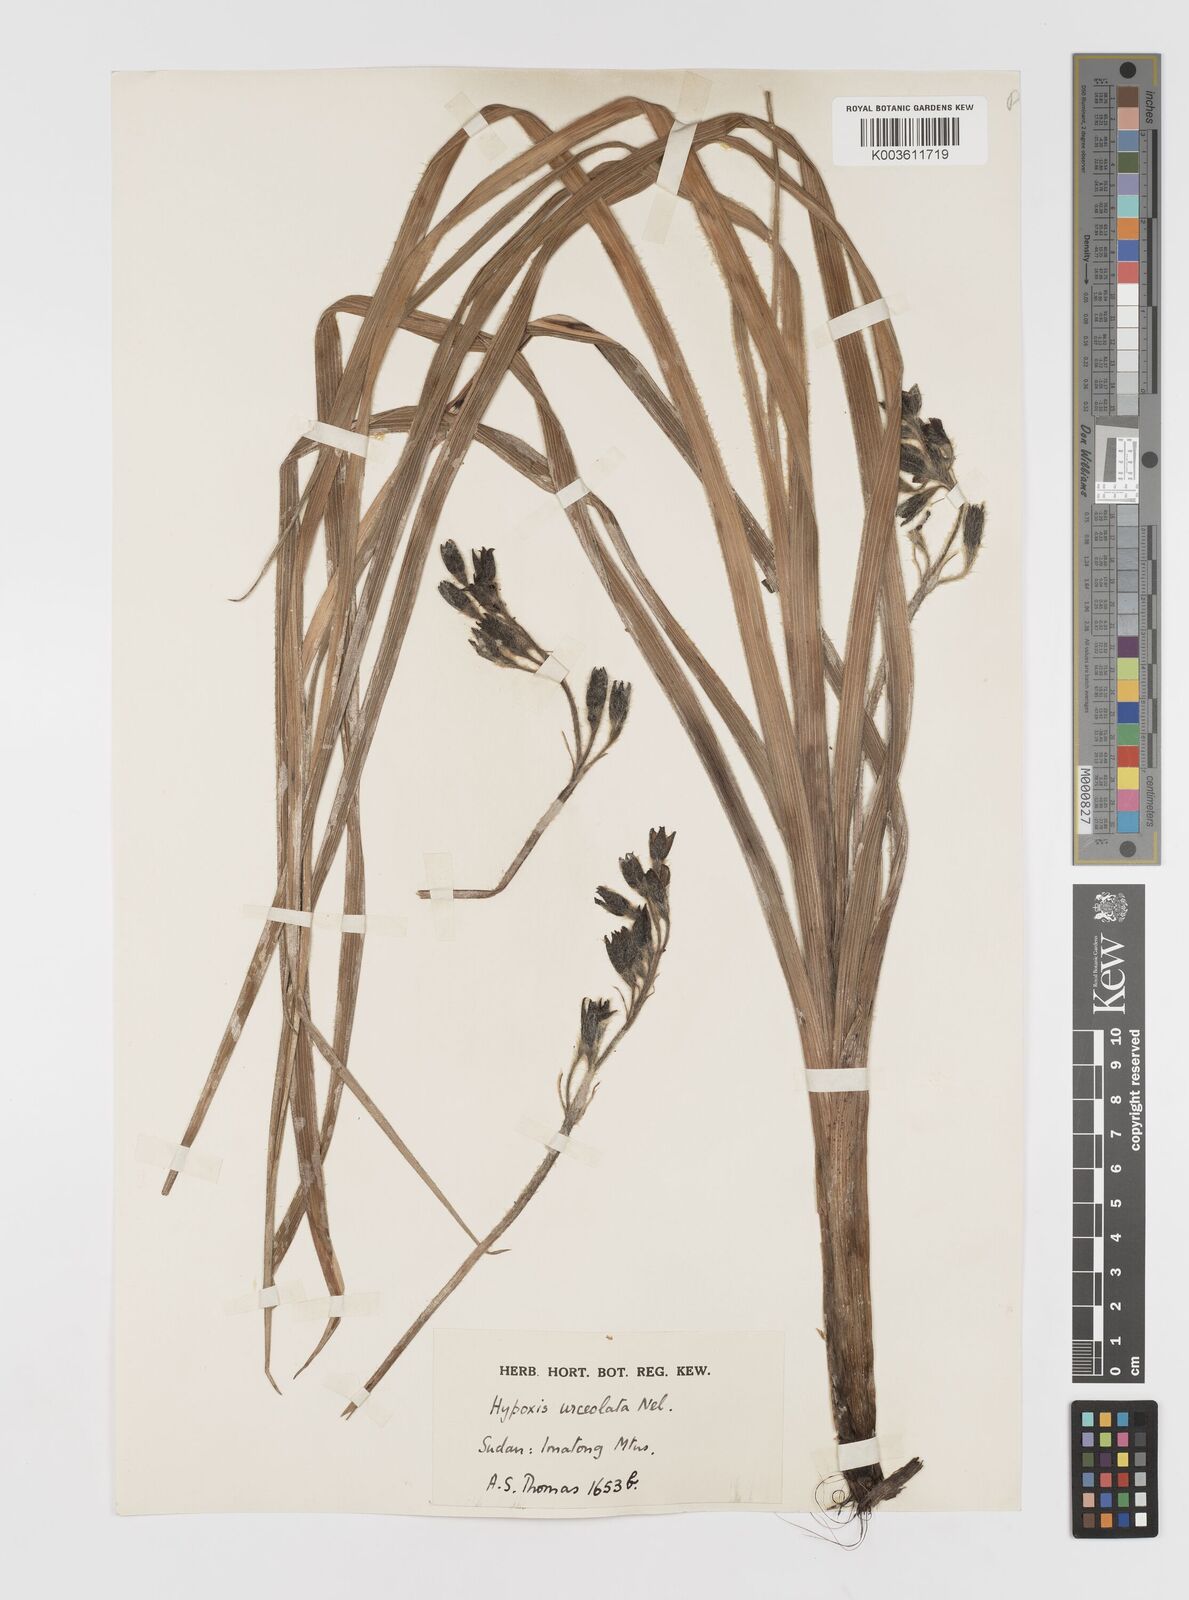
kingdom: Plantae
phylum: Tracheophyta
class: Liliopsida
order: Asparagales
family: Hypoxidaceae
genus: Hypoxis
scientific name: Hypoxis urceolata
